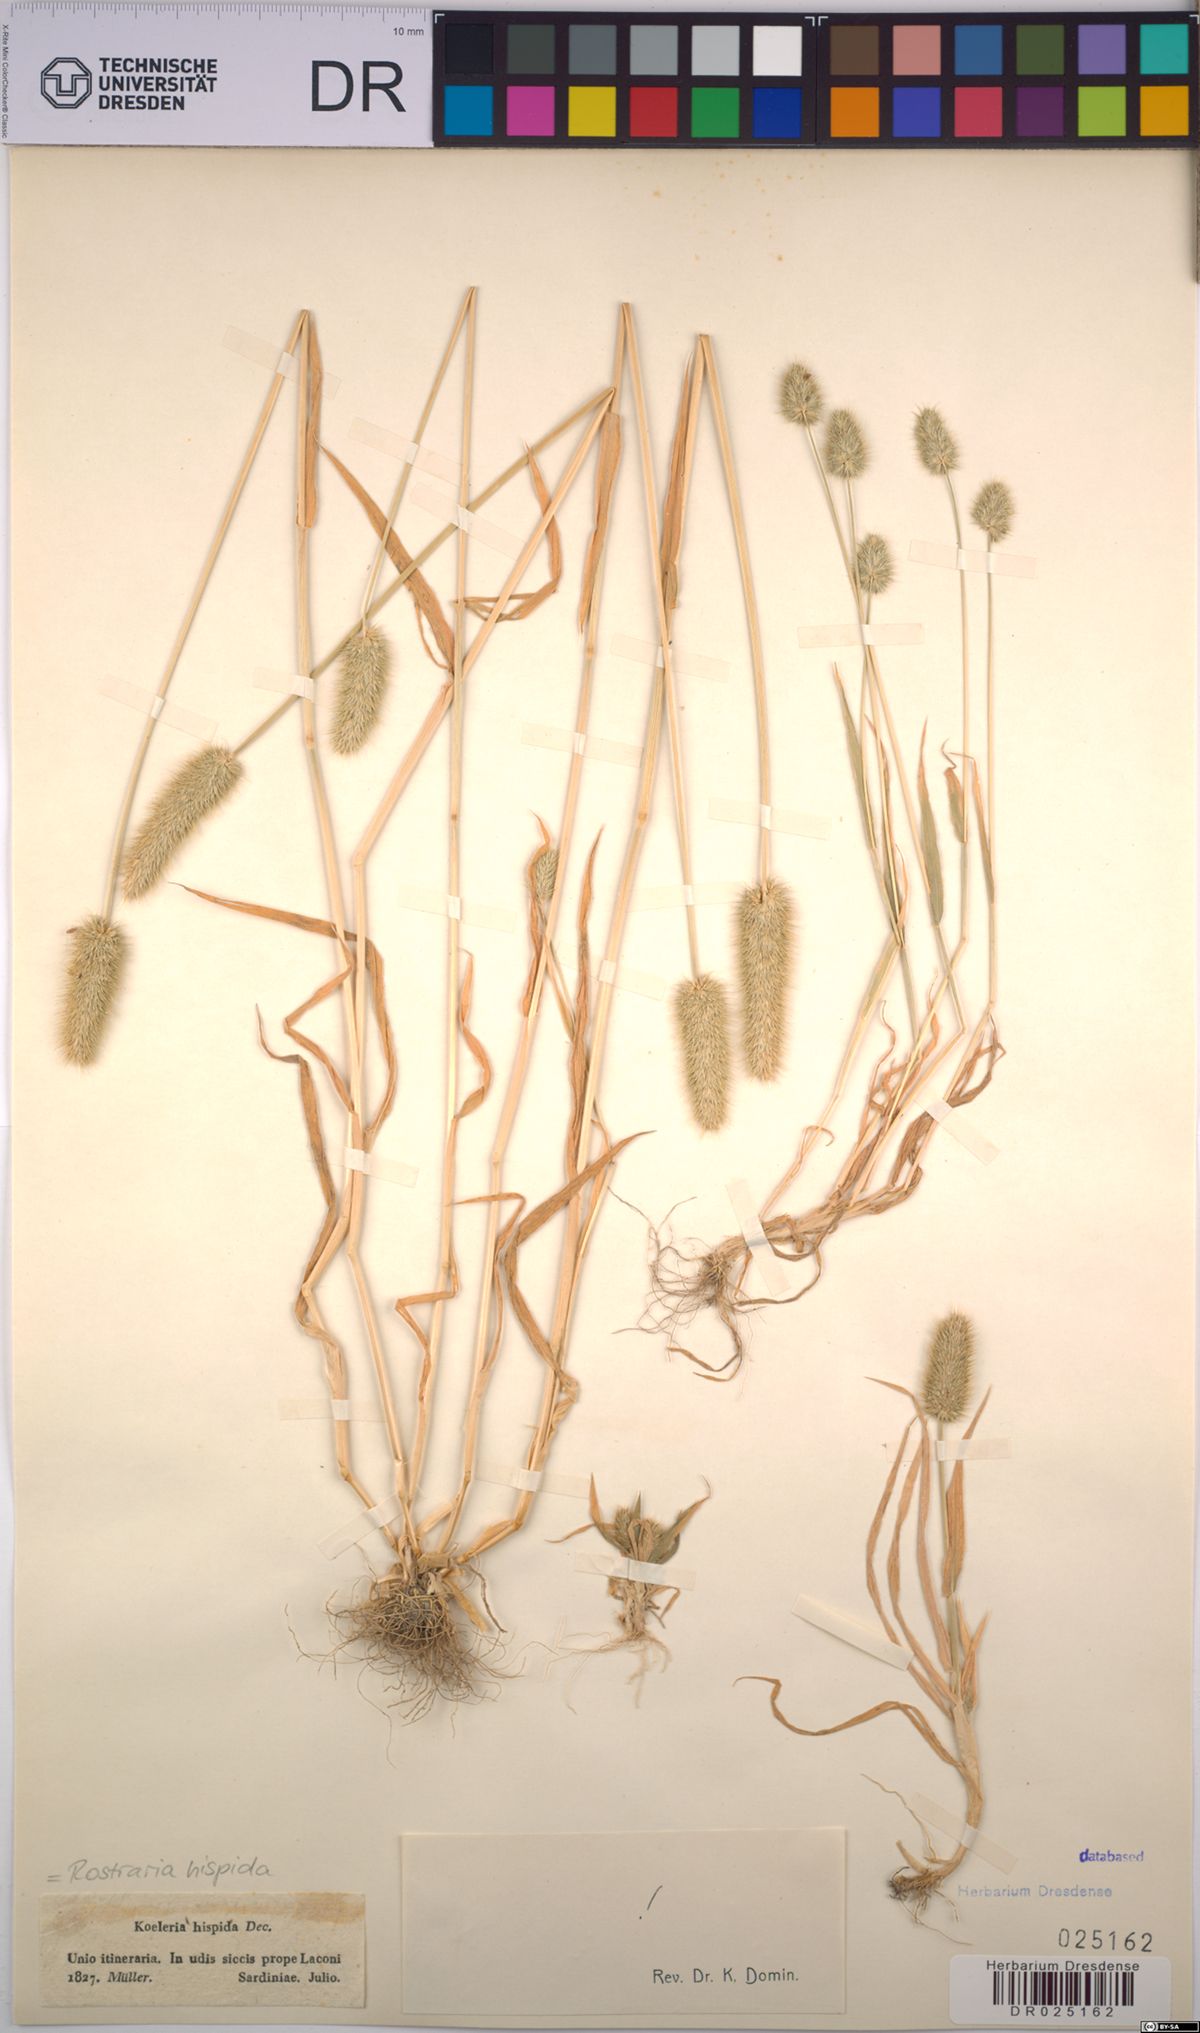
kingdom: Plantae
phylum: Tracheophyta
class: Liliopsida
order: Poales
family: Poaceae
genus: Rostraria
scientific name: Rostraria hispida
